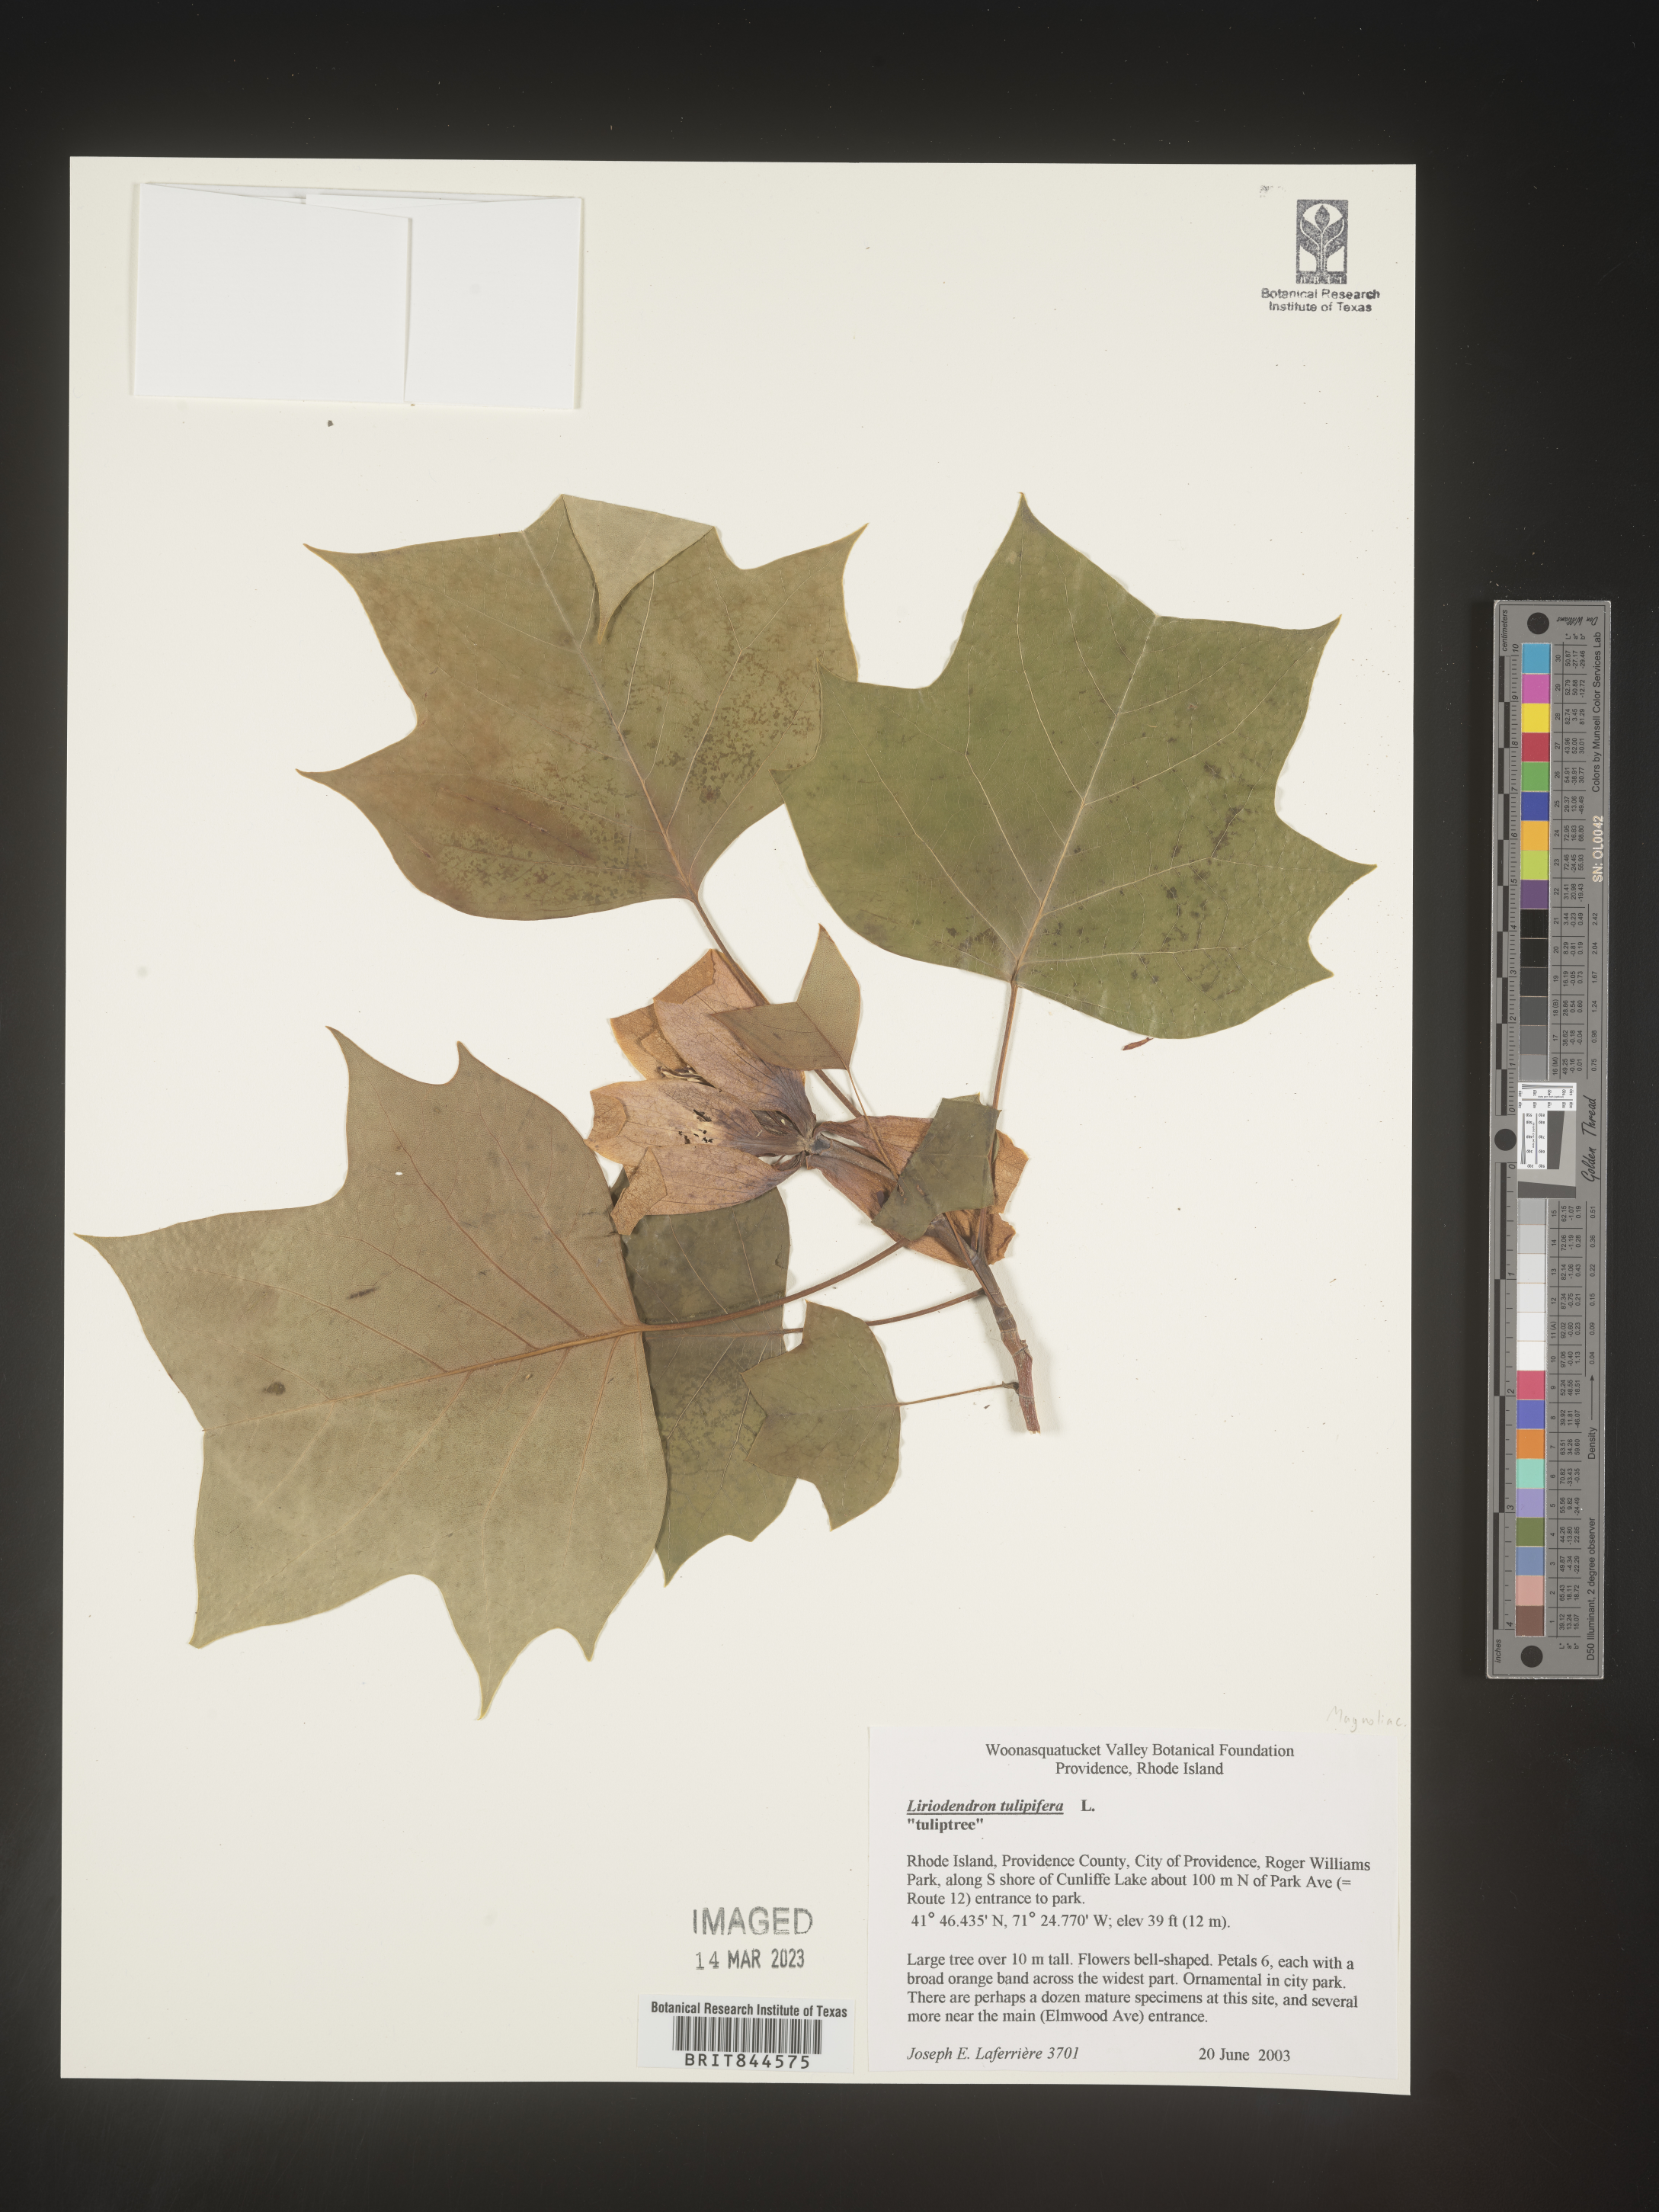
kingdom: Plantae
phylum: Tracheophyta
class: Magnoliopsida
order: Magnoliales
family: Magnoliaceae
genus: Liriodendron
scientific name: Liriodendron tulipifera
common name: Tulip tree
